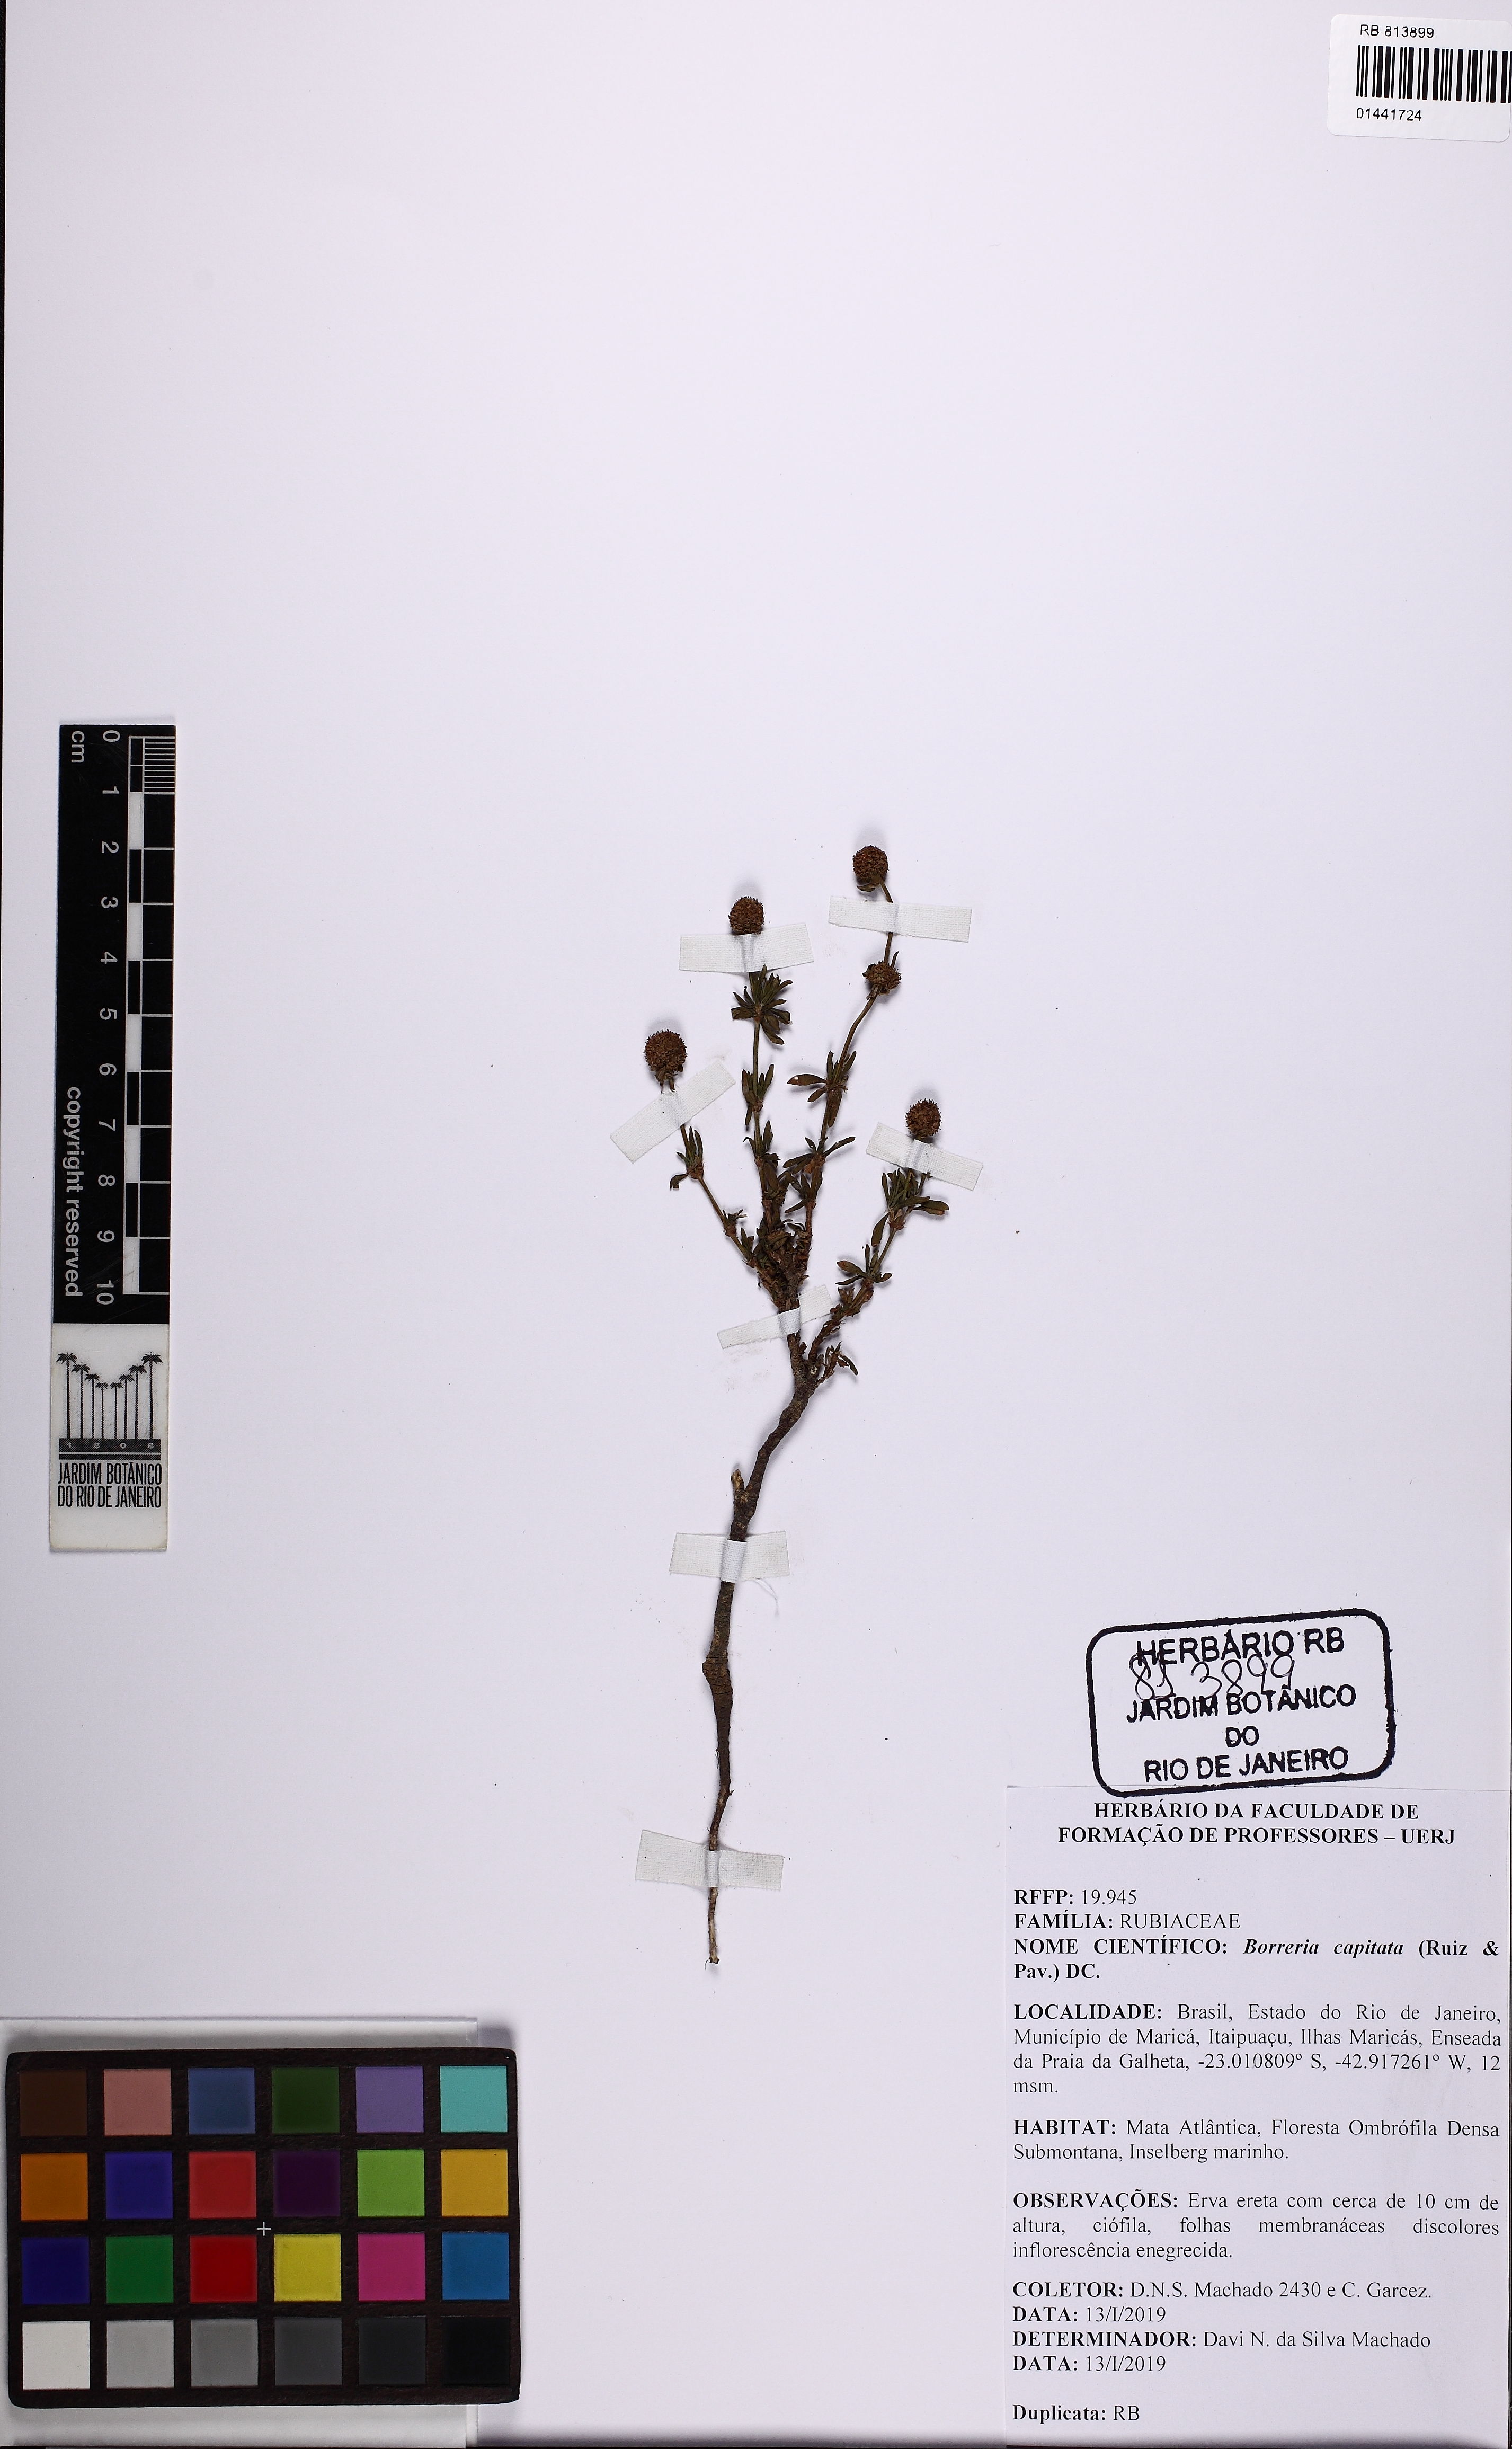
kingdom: Plantae
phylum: Tracheophyta
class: Magnoliopsida
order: Gentianales
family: Rubiaceae
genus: Spermacoce
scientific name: Spermacoce capitata
